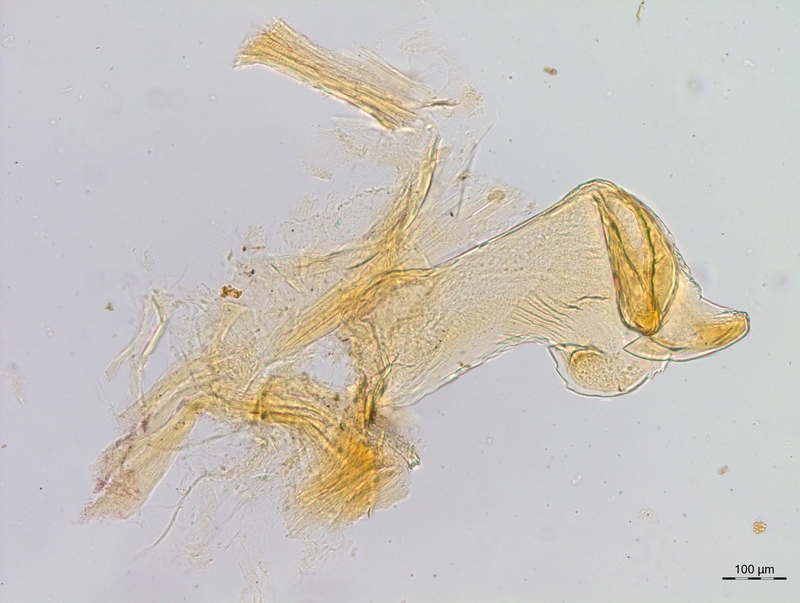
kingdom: Animalia
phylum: Arthropoda
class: Diplopoda
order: Chordeumatida
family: Craspedosomatidae
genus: Craspedosoma
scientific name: Craspedosoma rawlinsii
